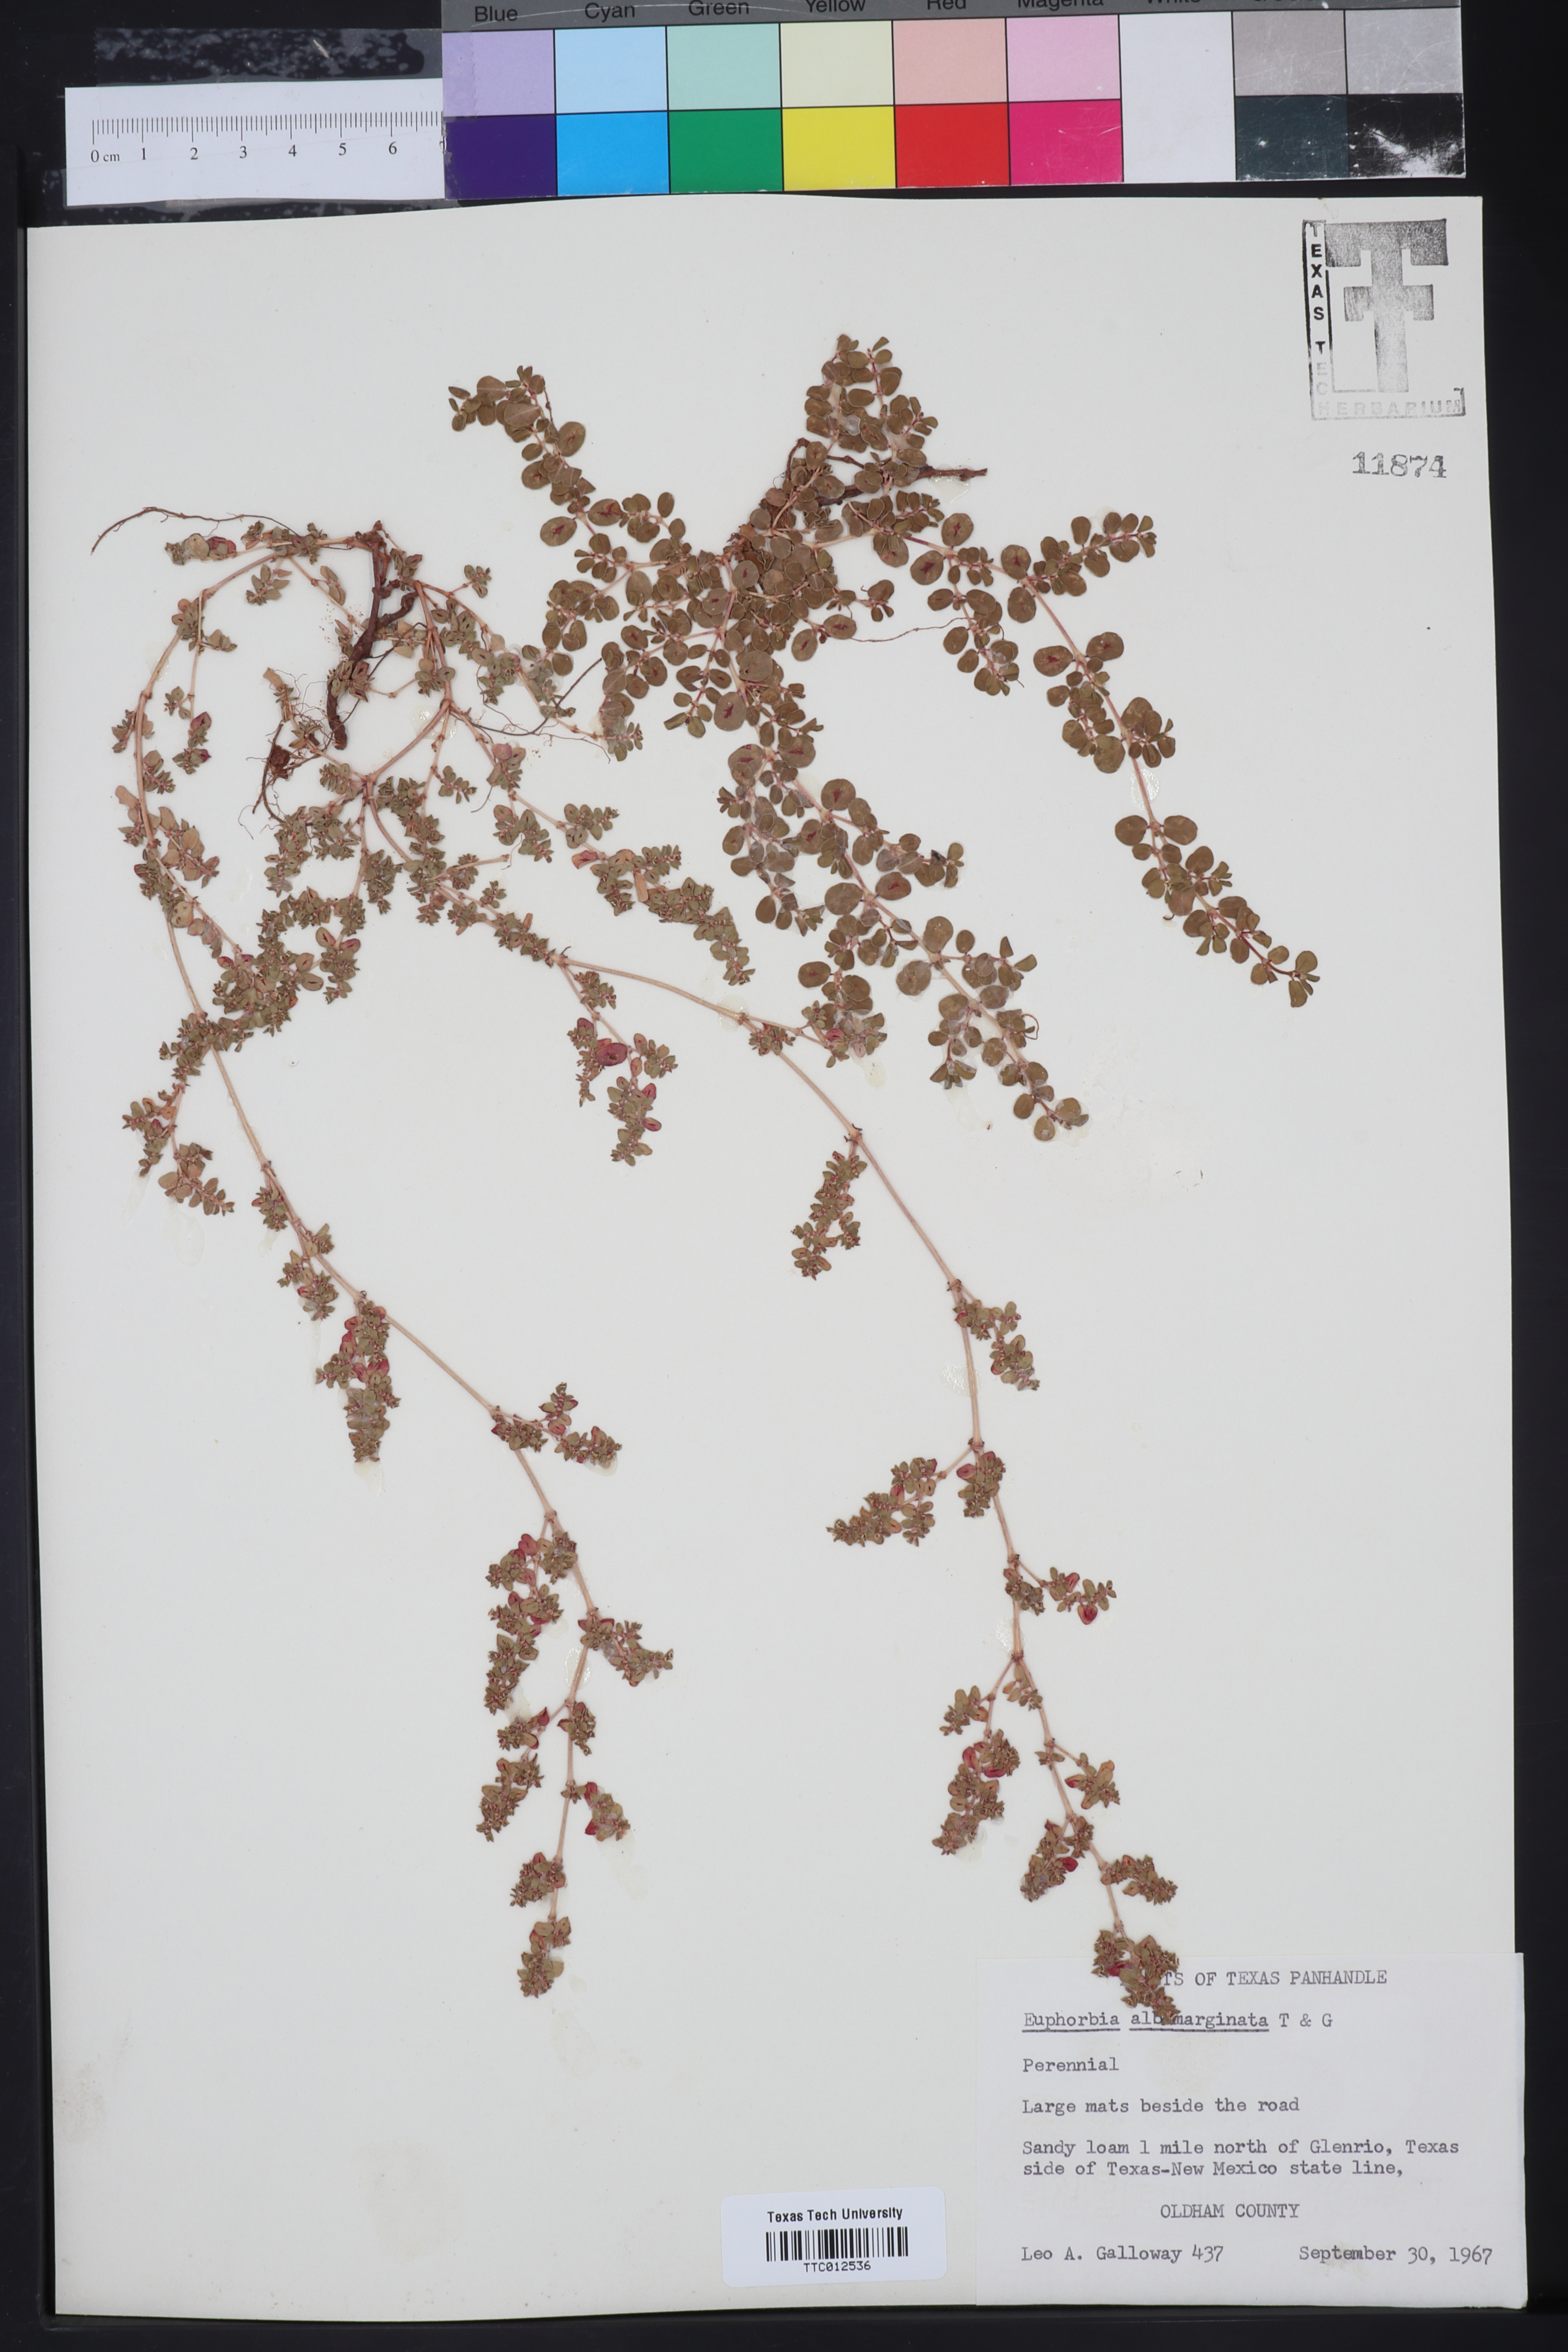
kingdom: Plantae
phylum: Tracheophyta
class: Magnoliopsida
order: Malpighiales
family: Euphorbiaceae
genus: Euphorbia
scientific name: Euphorbia albomarginata
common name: Whitemargin sandmat
